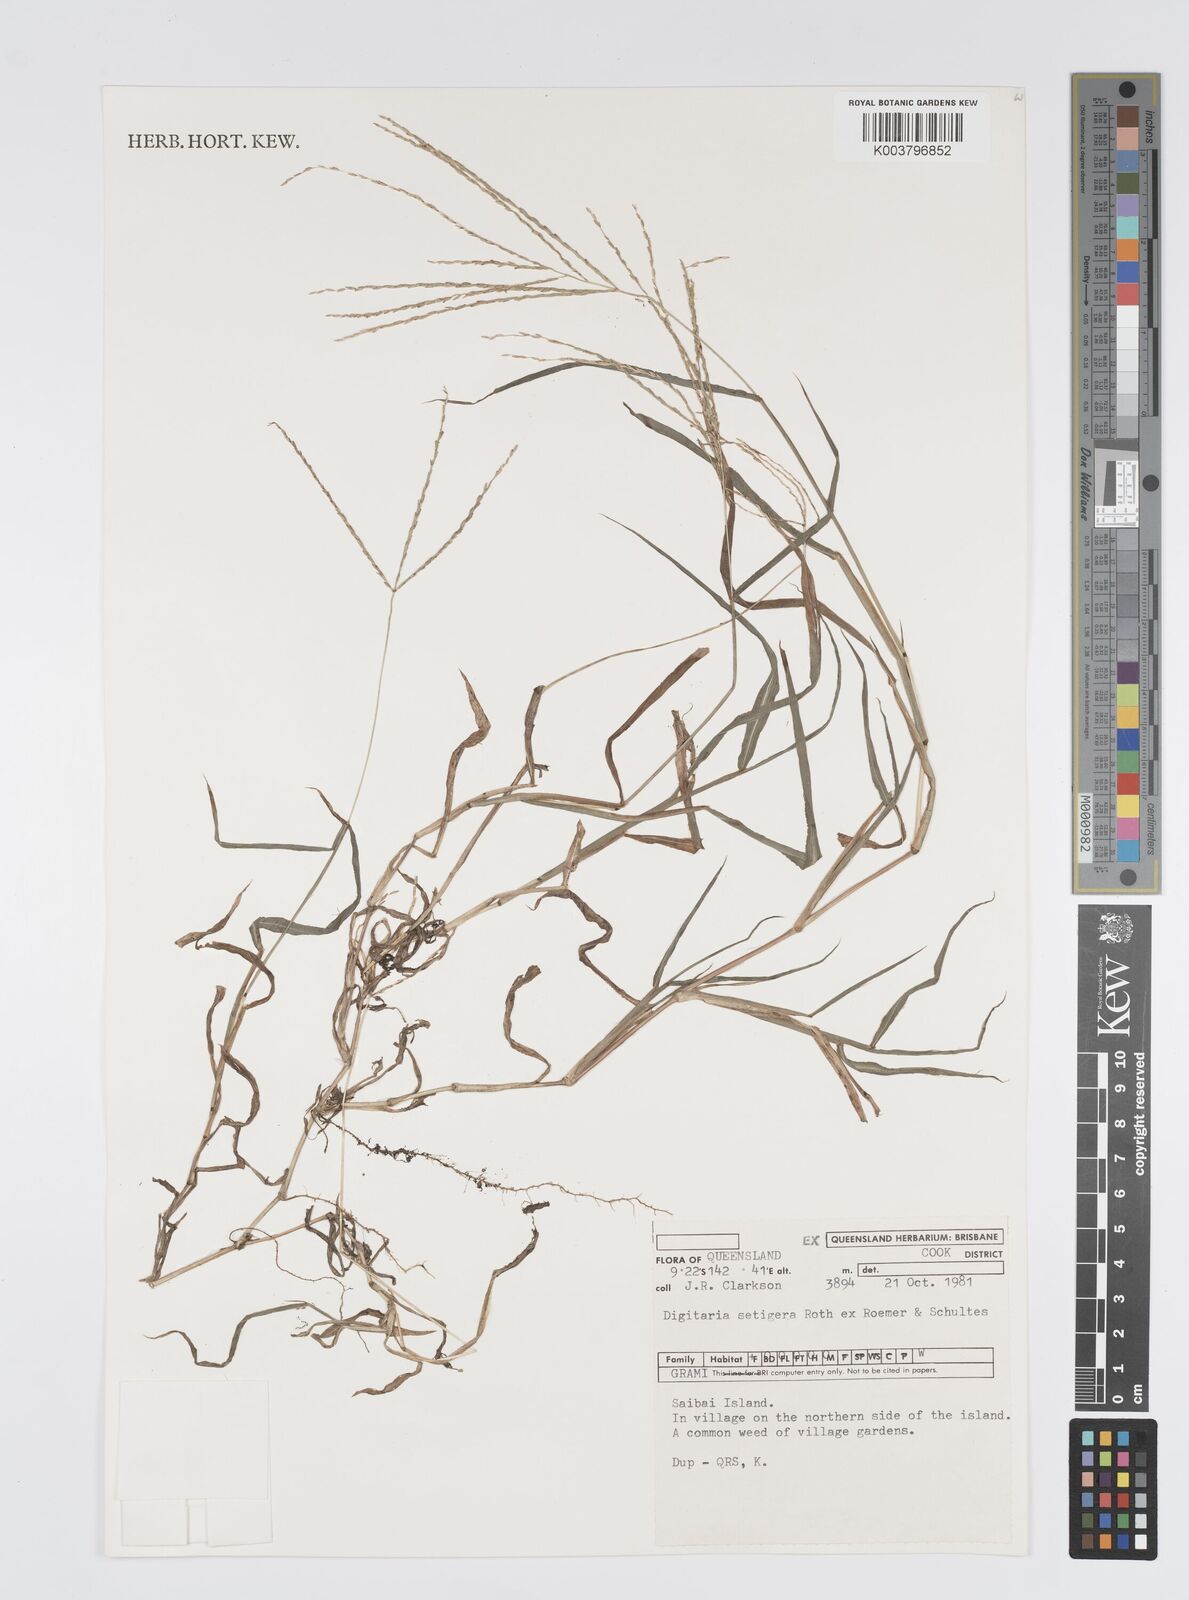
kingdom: Plantae
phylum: Tracheophyta
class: Liliopsida
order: Poales
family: Poaceae
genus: Digitaria
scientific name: Digitaria setigera
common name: East indian crabgrass
